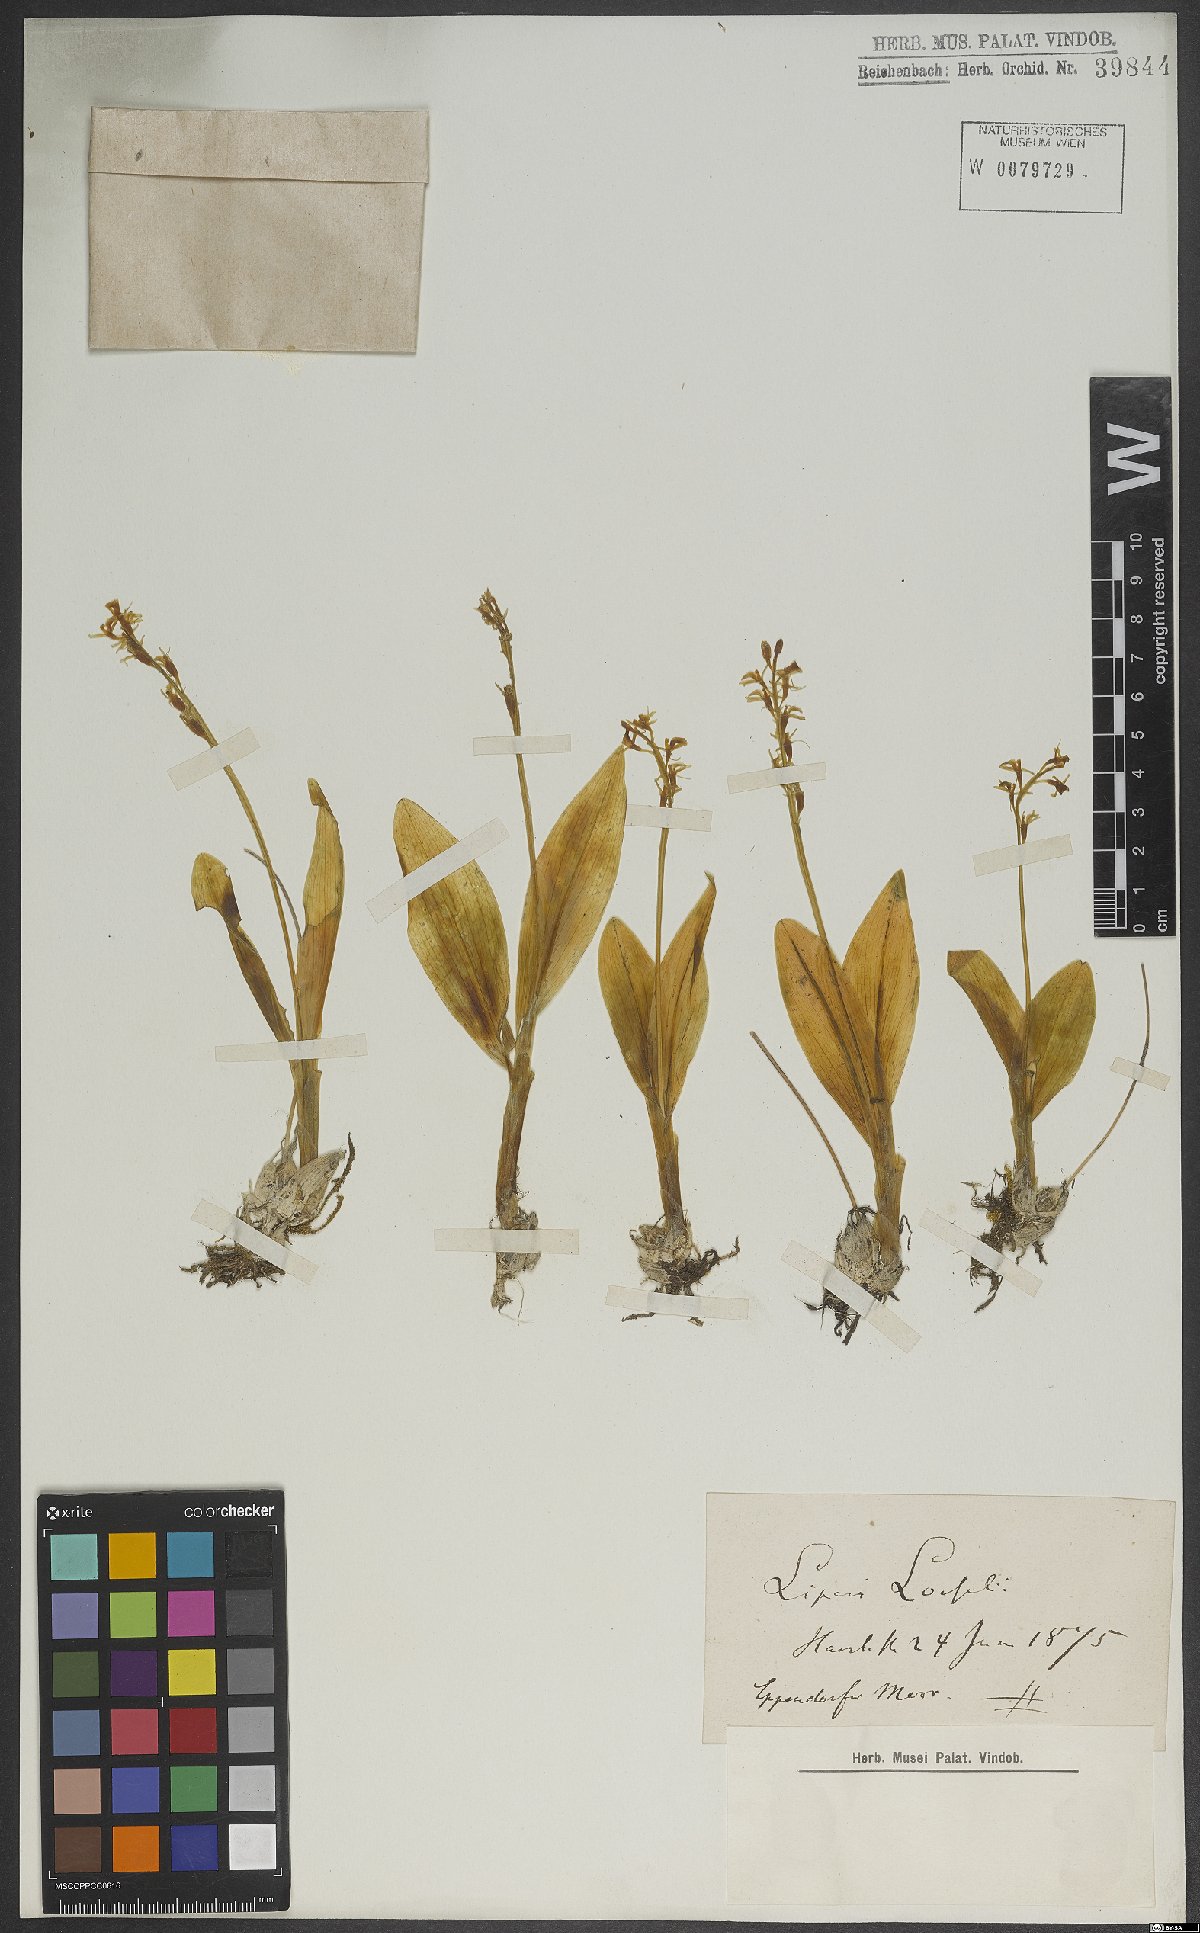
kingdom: Animalia
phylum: Arthropoda
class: Insecta
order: Coleoptera
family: Curculionidae
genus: Liparis
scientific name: Liparis loeselii
